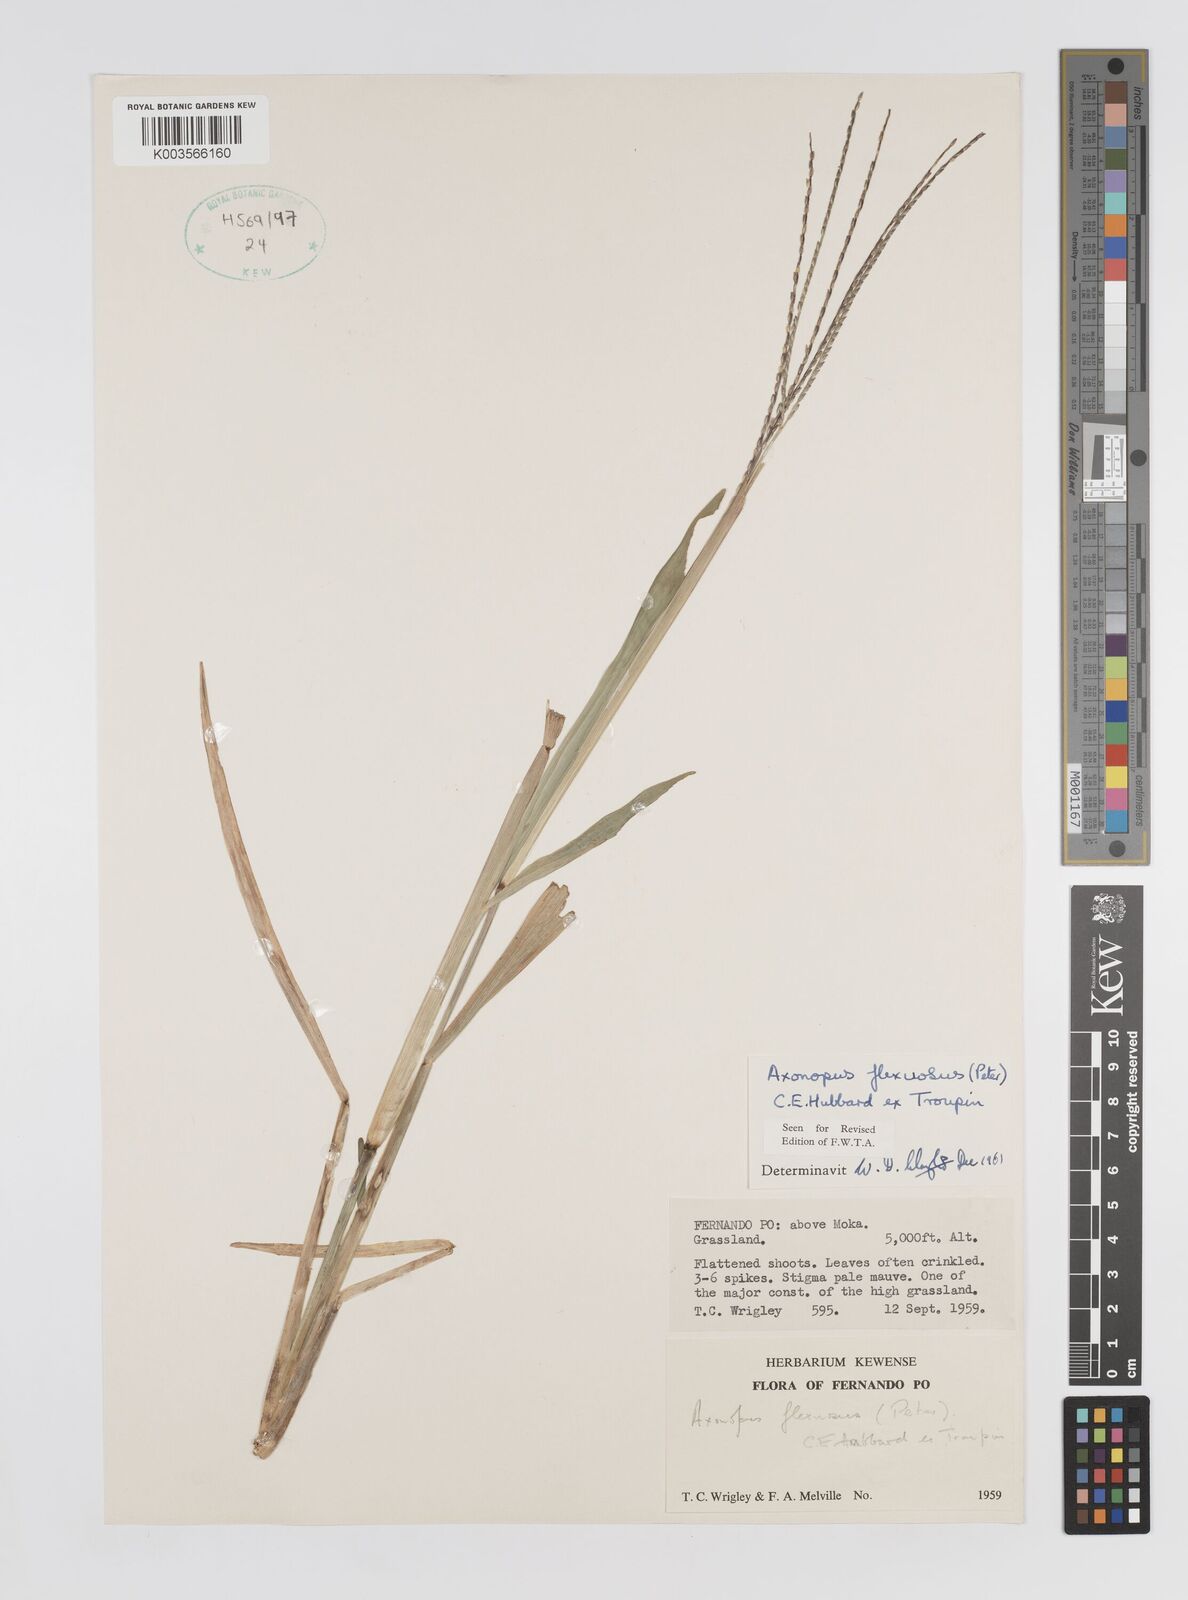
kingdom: Plantae
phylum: Tracheophyta
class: Liliopsida
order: Poales
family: Poaceae
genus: Axonopus
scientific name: Axonopus flexuosus
